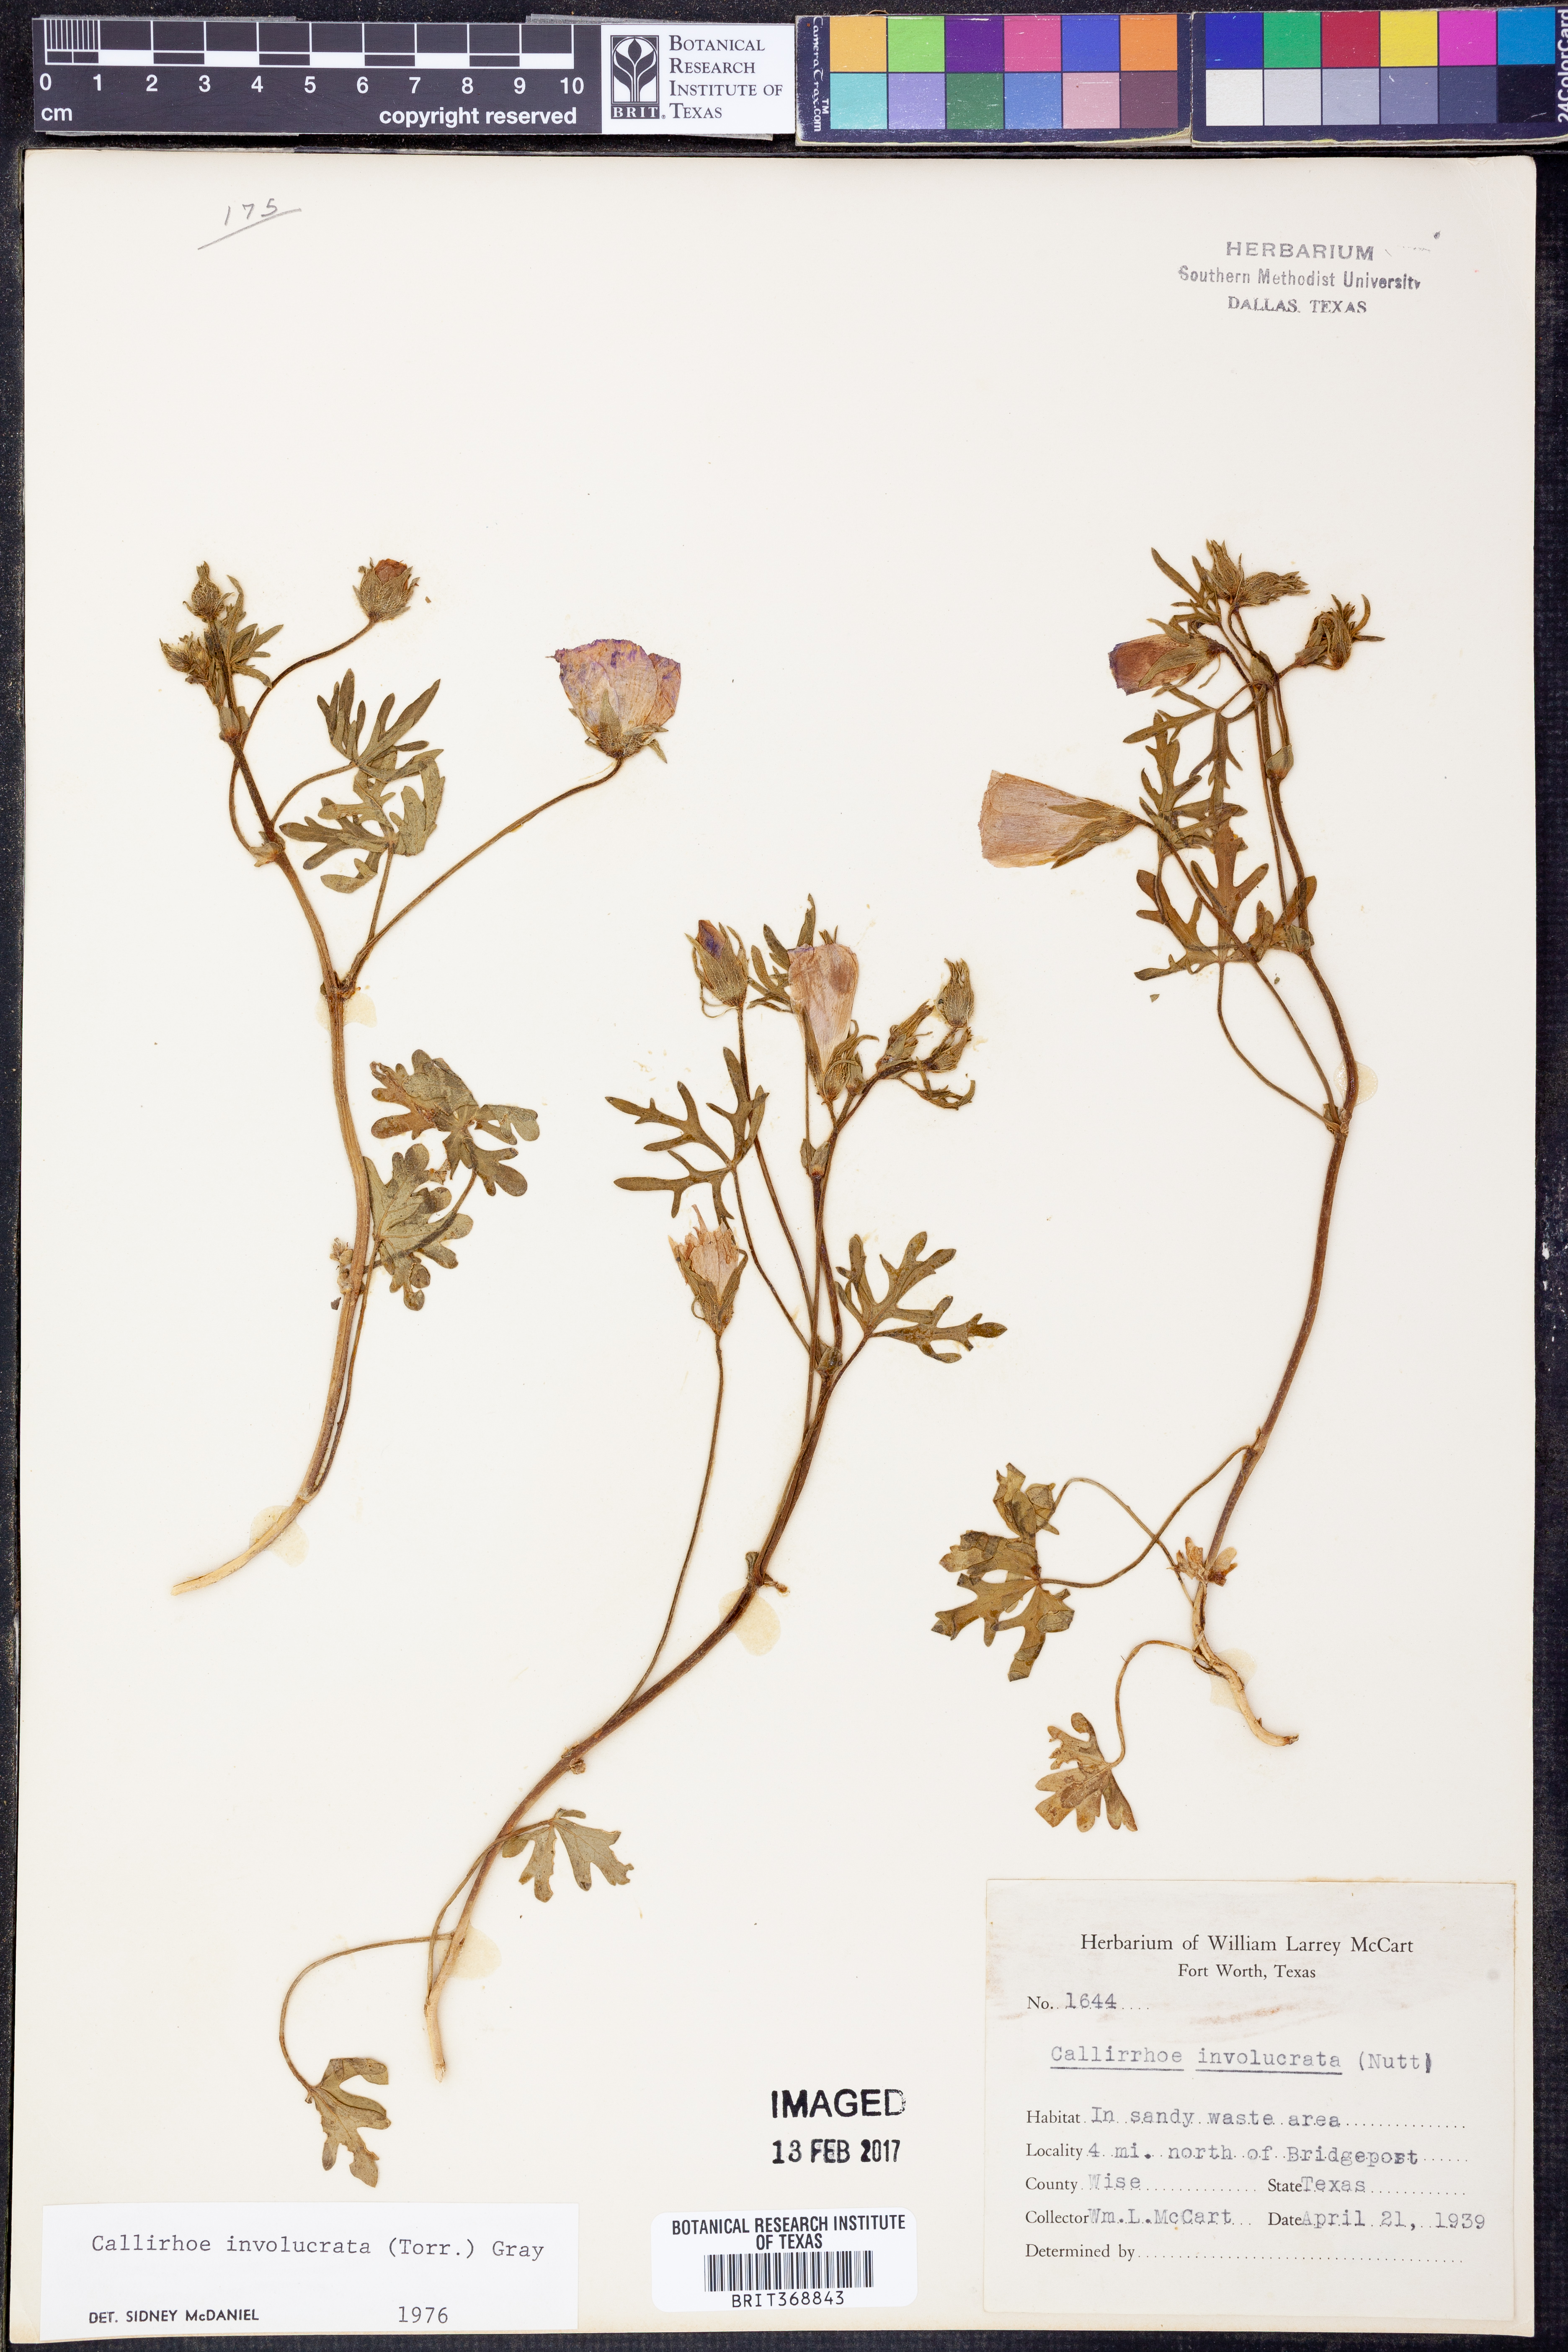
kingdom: Plantae
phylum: Tracheophyta
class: Magnoliopsida
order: Malvales
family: Malvaceae
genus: Callirhoe
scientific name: Callirhoe involucrata
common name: Purple poppy-mallow
